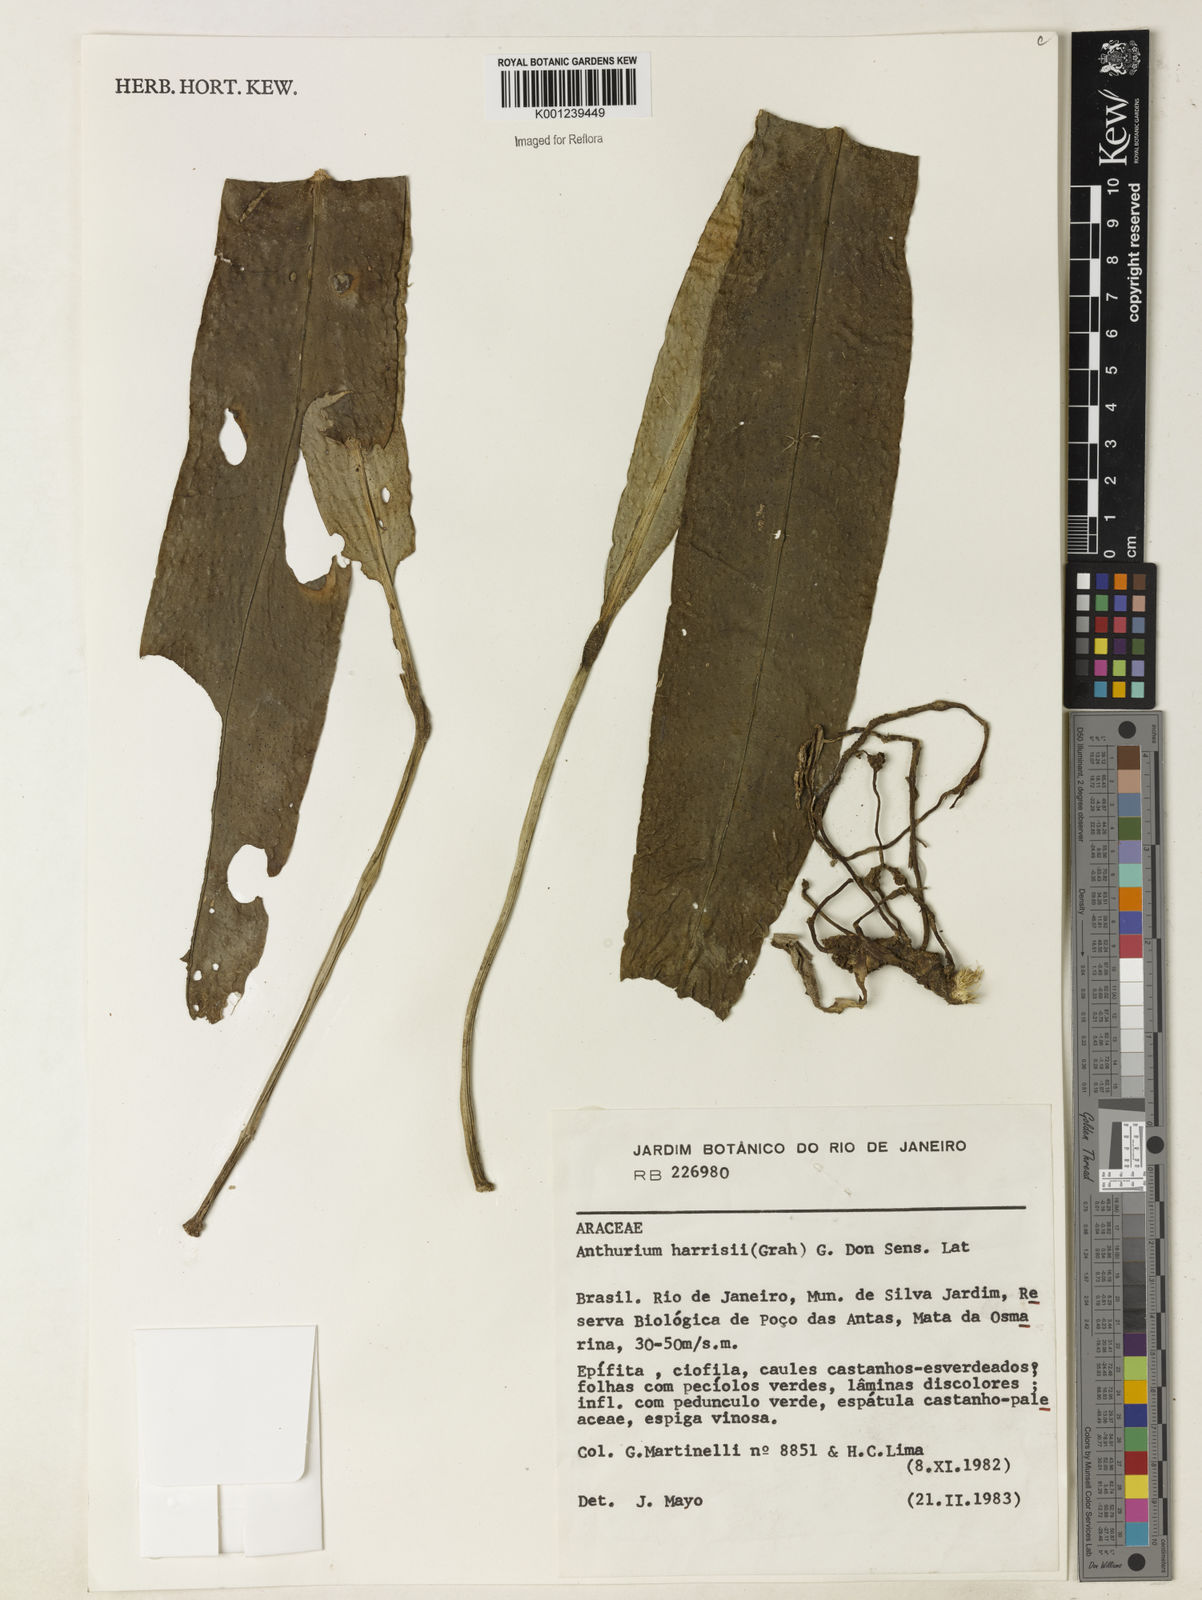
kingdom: Plantae
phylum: Tracheophyta
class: Liliopsida
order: Alismatales
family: Araceae
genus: Anthurium
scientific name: Anthurium harrisii
